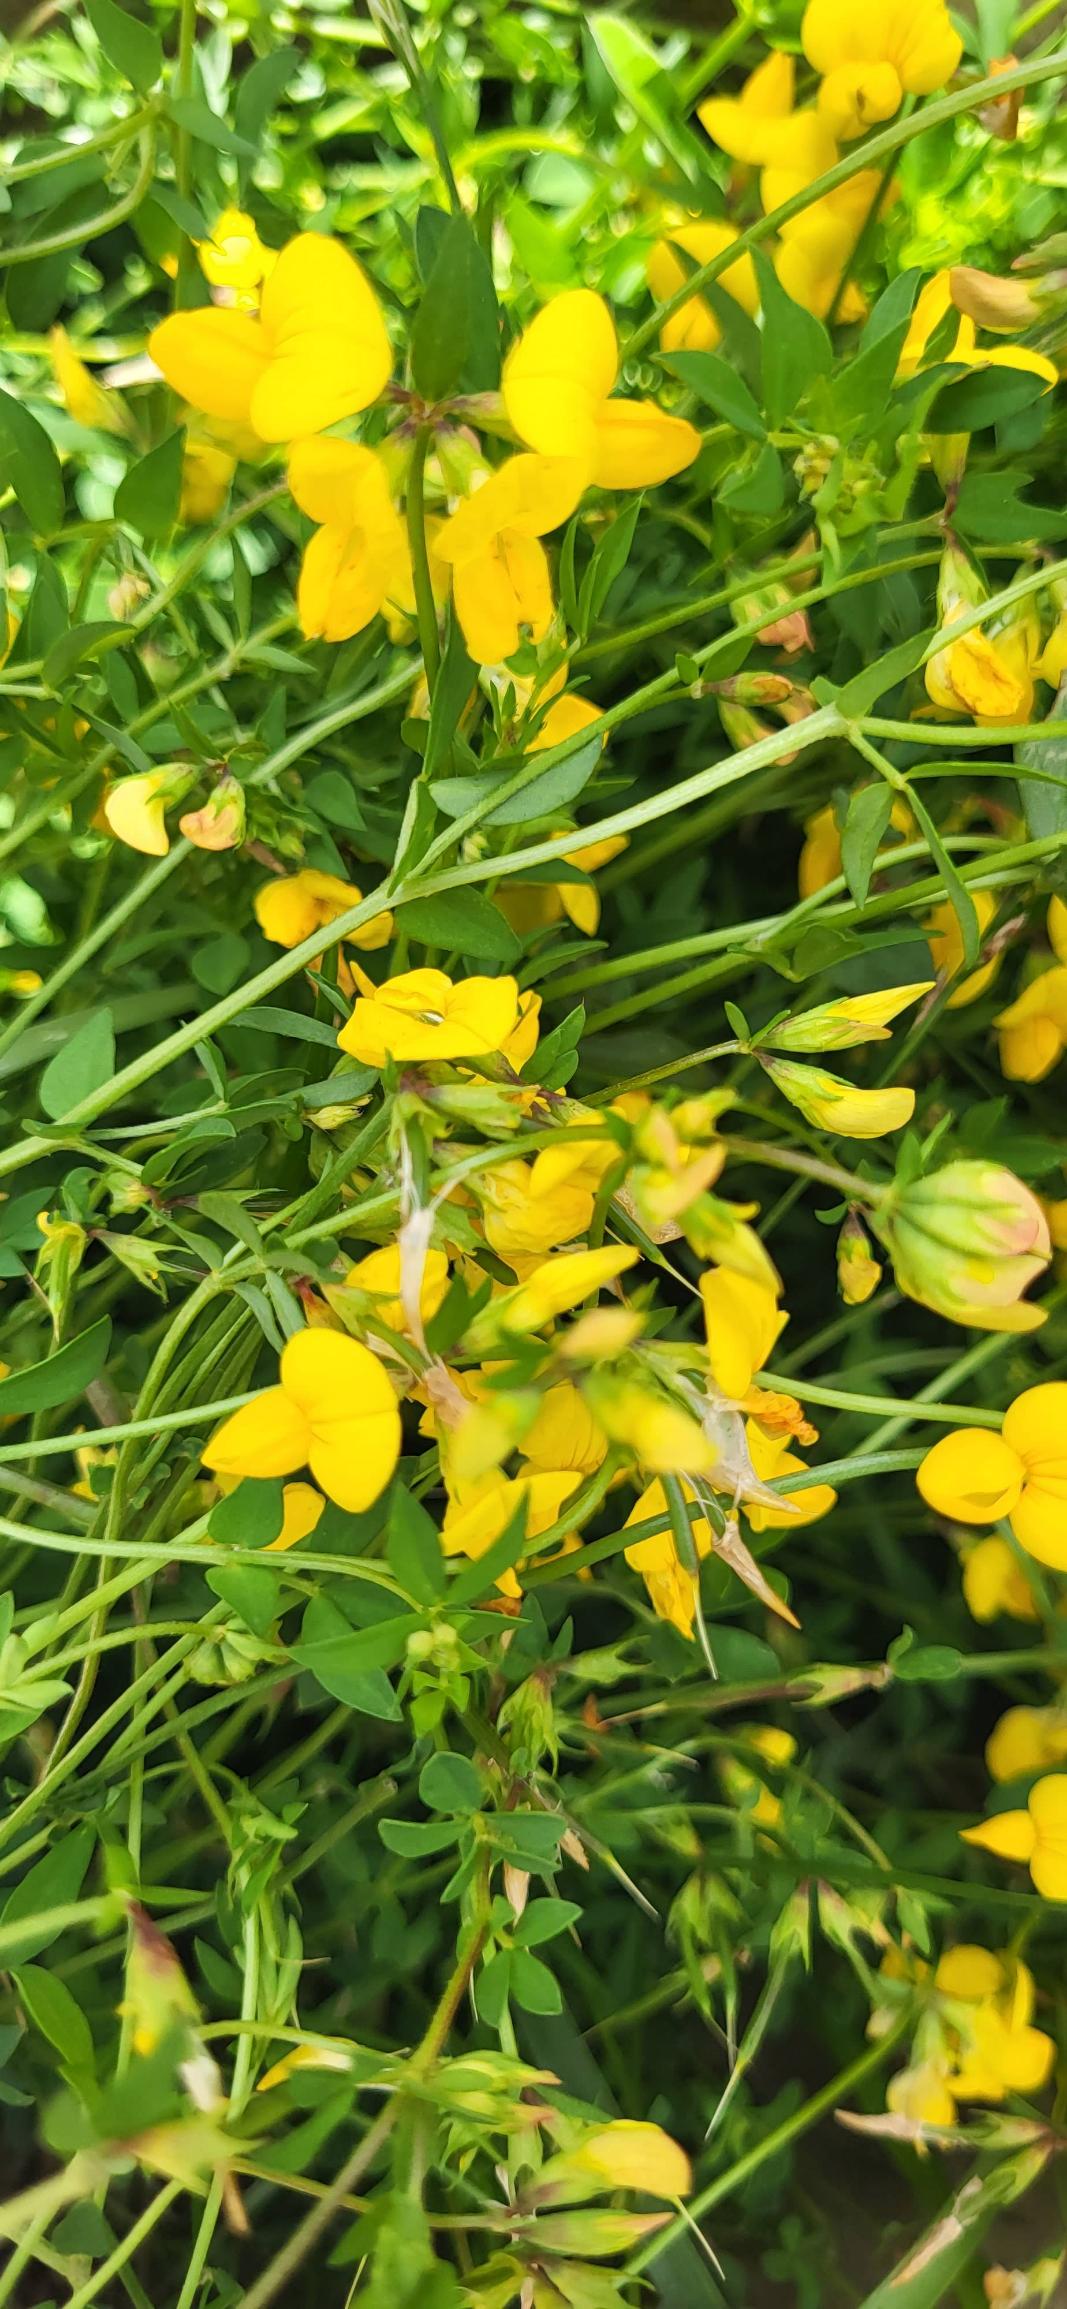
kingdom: Plantae
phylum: Tracheophyta
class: Magnoliopsida
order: Fabales
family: Fabaceae
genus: Lotus
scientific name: Lotus corniculatus
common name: Almindelig kællingetand
